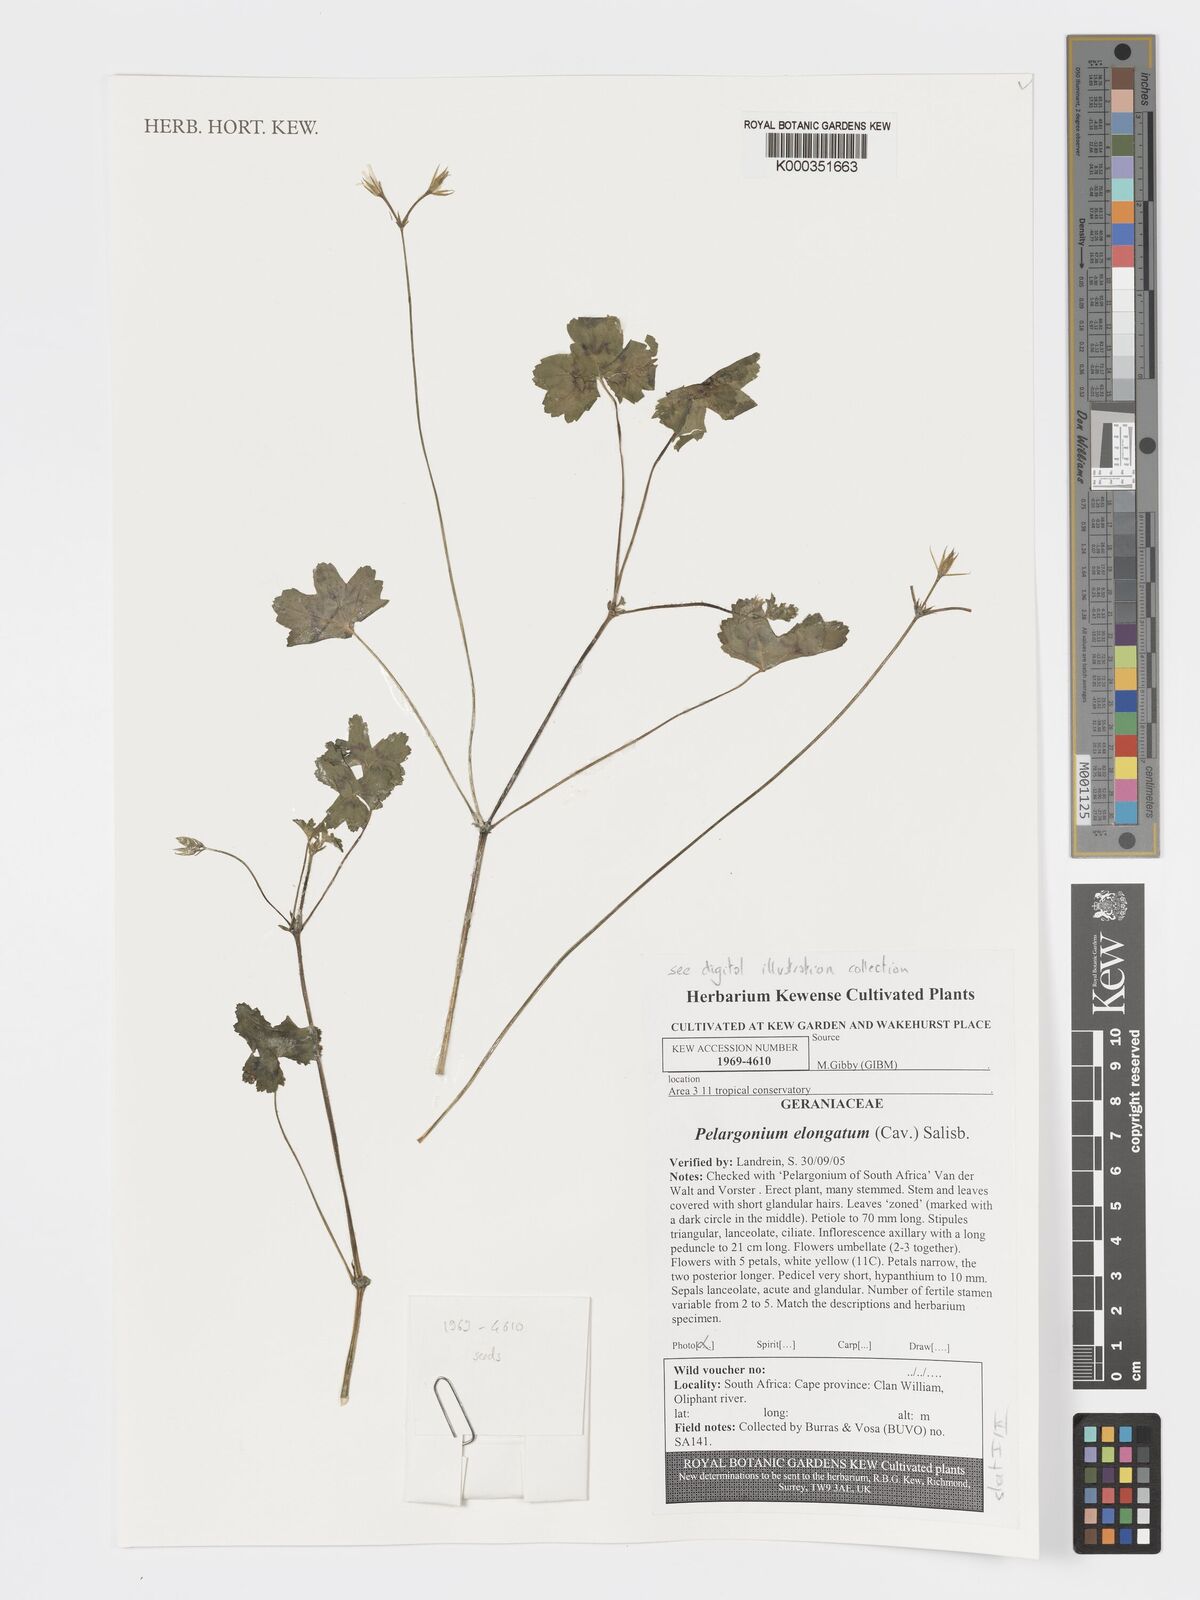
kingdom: Plantae
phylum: Tracheophyta
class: Magnoliopsida
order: Geraniales
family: Geraniaceae
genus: Pelargonium
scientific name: Pelargonium elongatum
